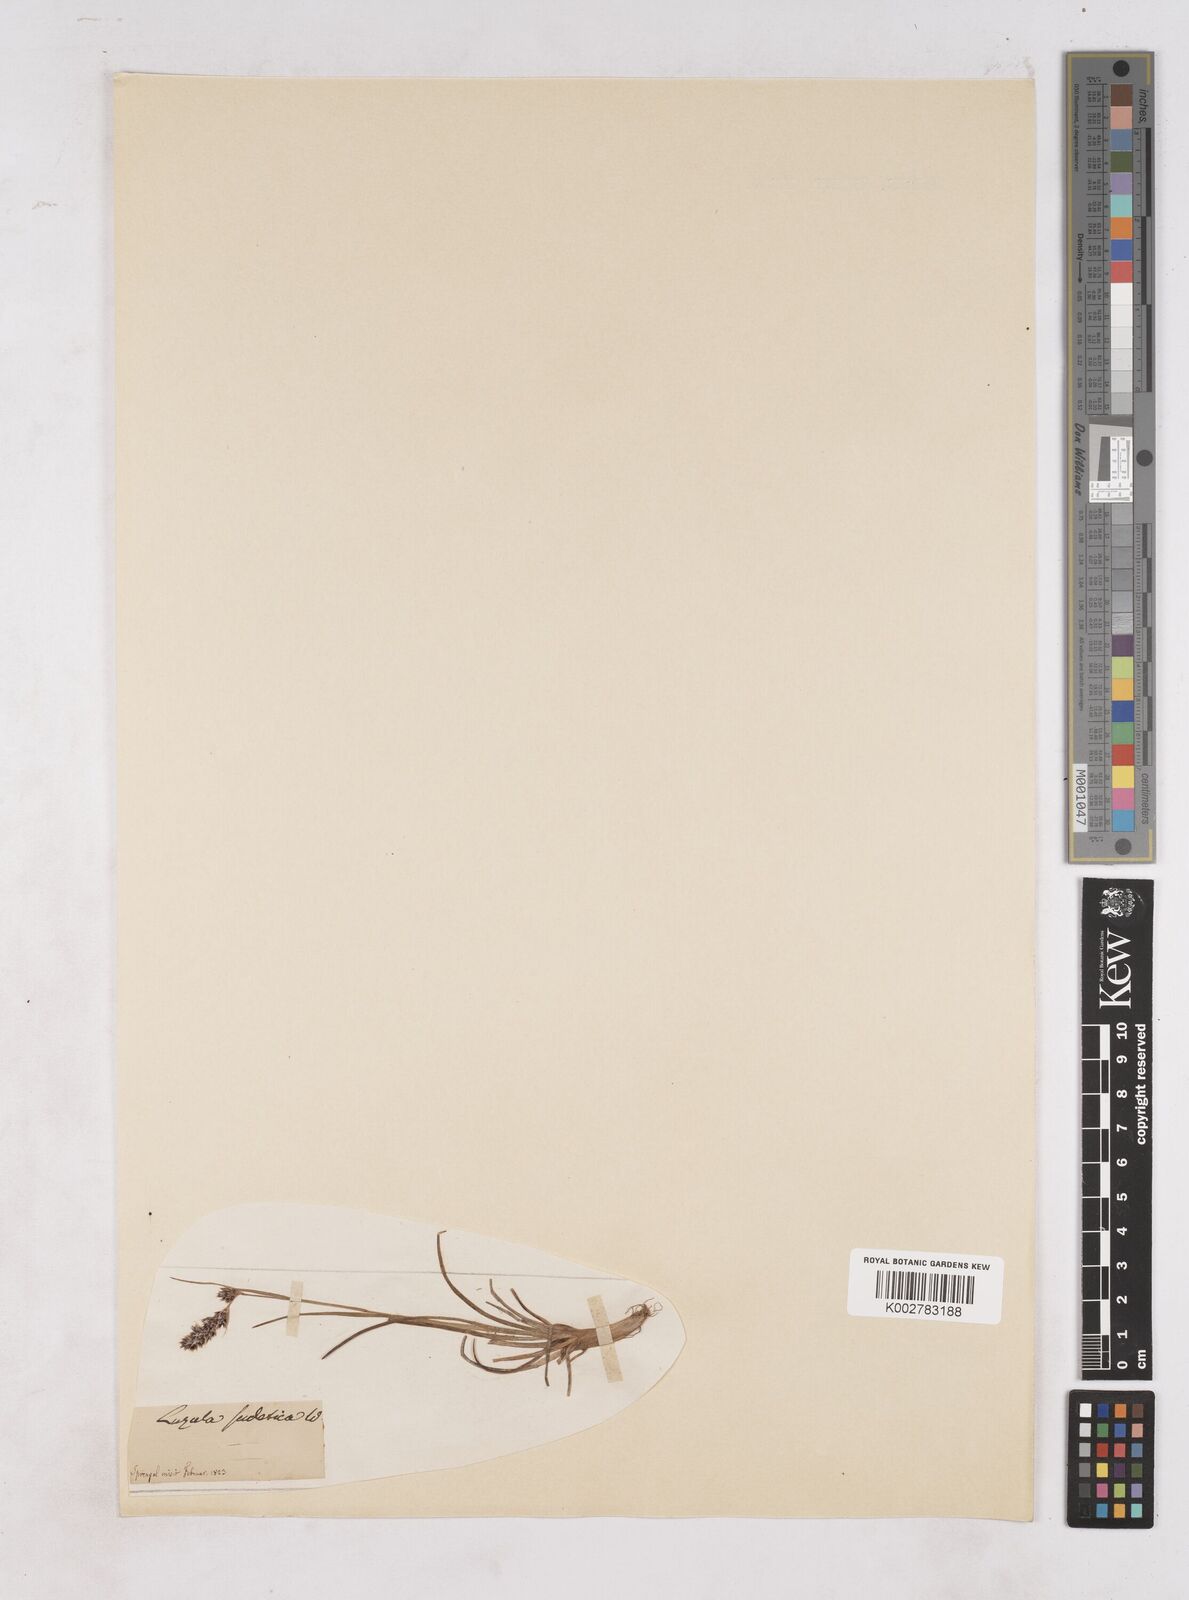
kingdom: Plantae
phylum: Tracheophyta
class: Liliopsida
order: Poales
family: Juncaceae
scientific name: Juncaceae
